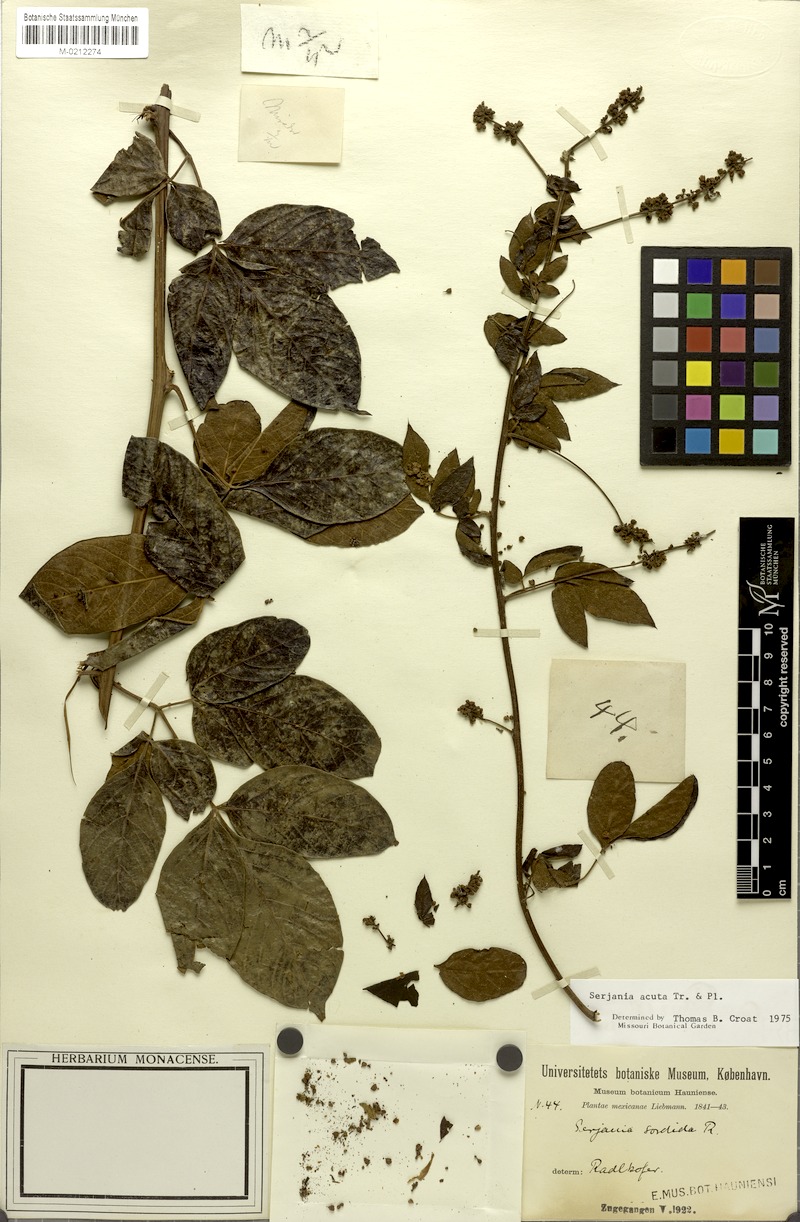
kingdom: Plantae
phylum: Tracheophyta
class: Magnoliopsida
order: Sapindales
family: Sapindaceae
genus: Serjania
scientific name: Serjania acuta
